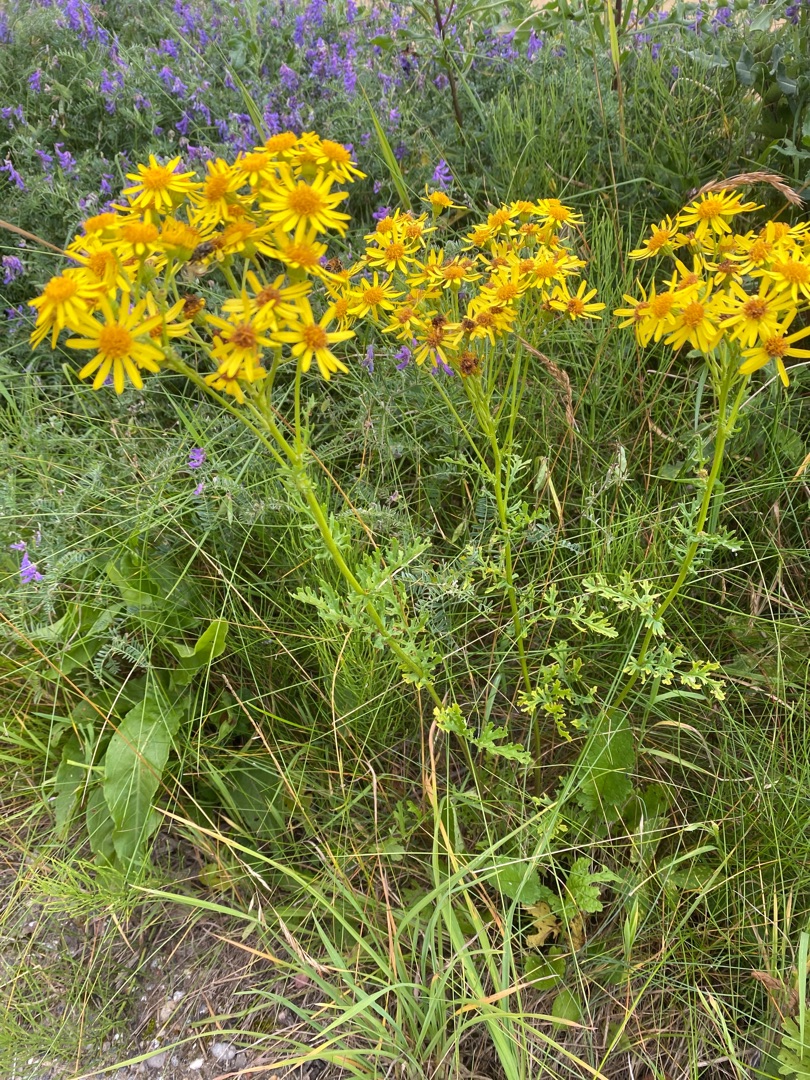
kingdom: Plantae
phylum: Tracheophyta
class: Magnoliopsida
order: Asterales
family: Asteraceae
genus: Jacobaea
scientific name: Jacobaea vulgaris
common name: Eng-brandbæger
